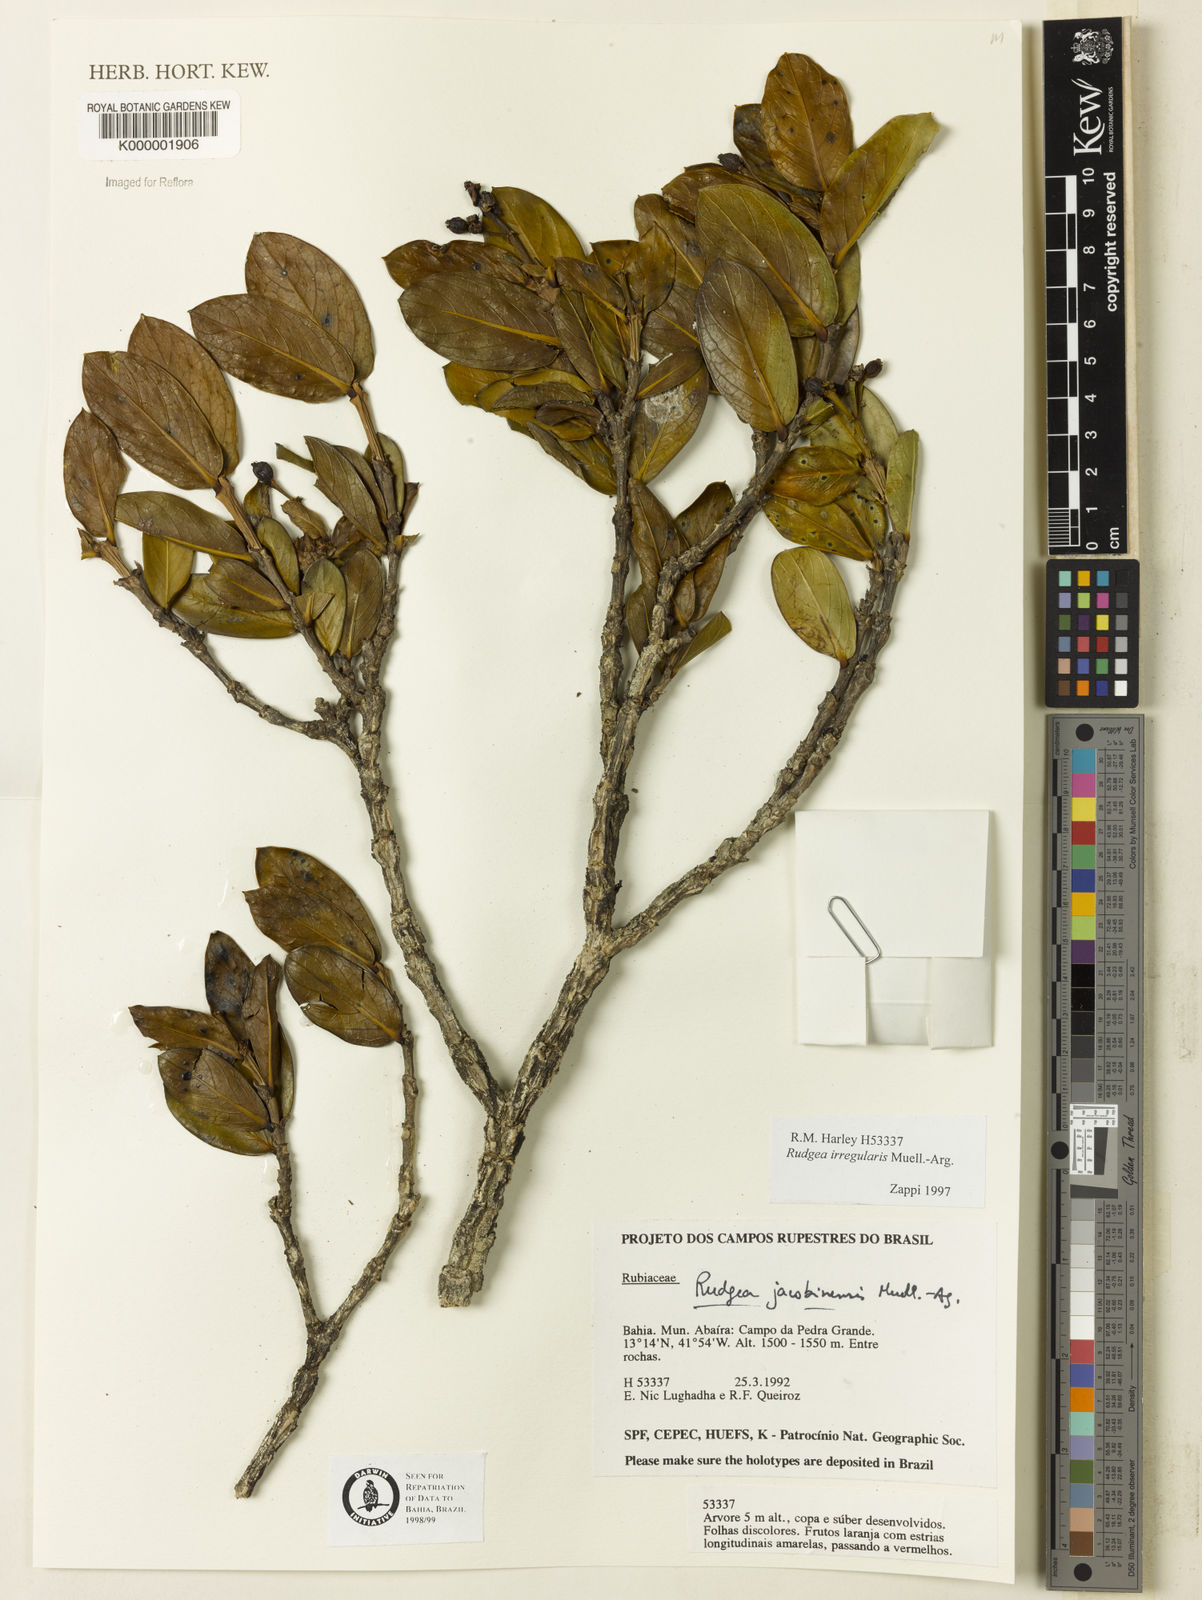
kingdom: Plantae
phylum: Tracheophyta
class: Magnoliopsida
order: Gentianales
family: Rubiaceae
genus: Rudgea
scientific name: Rudgea irregularis
